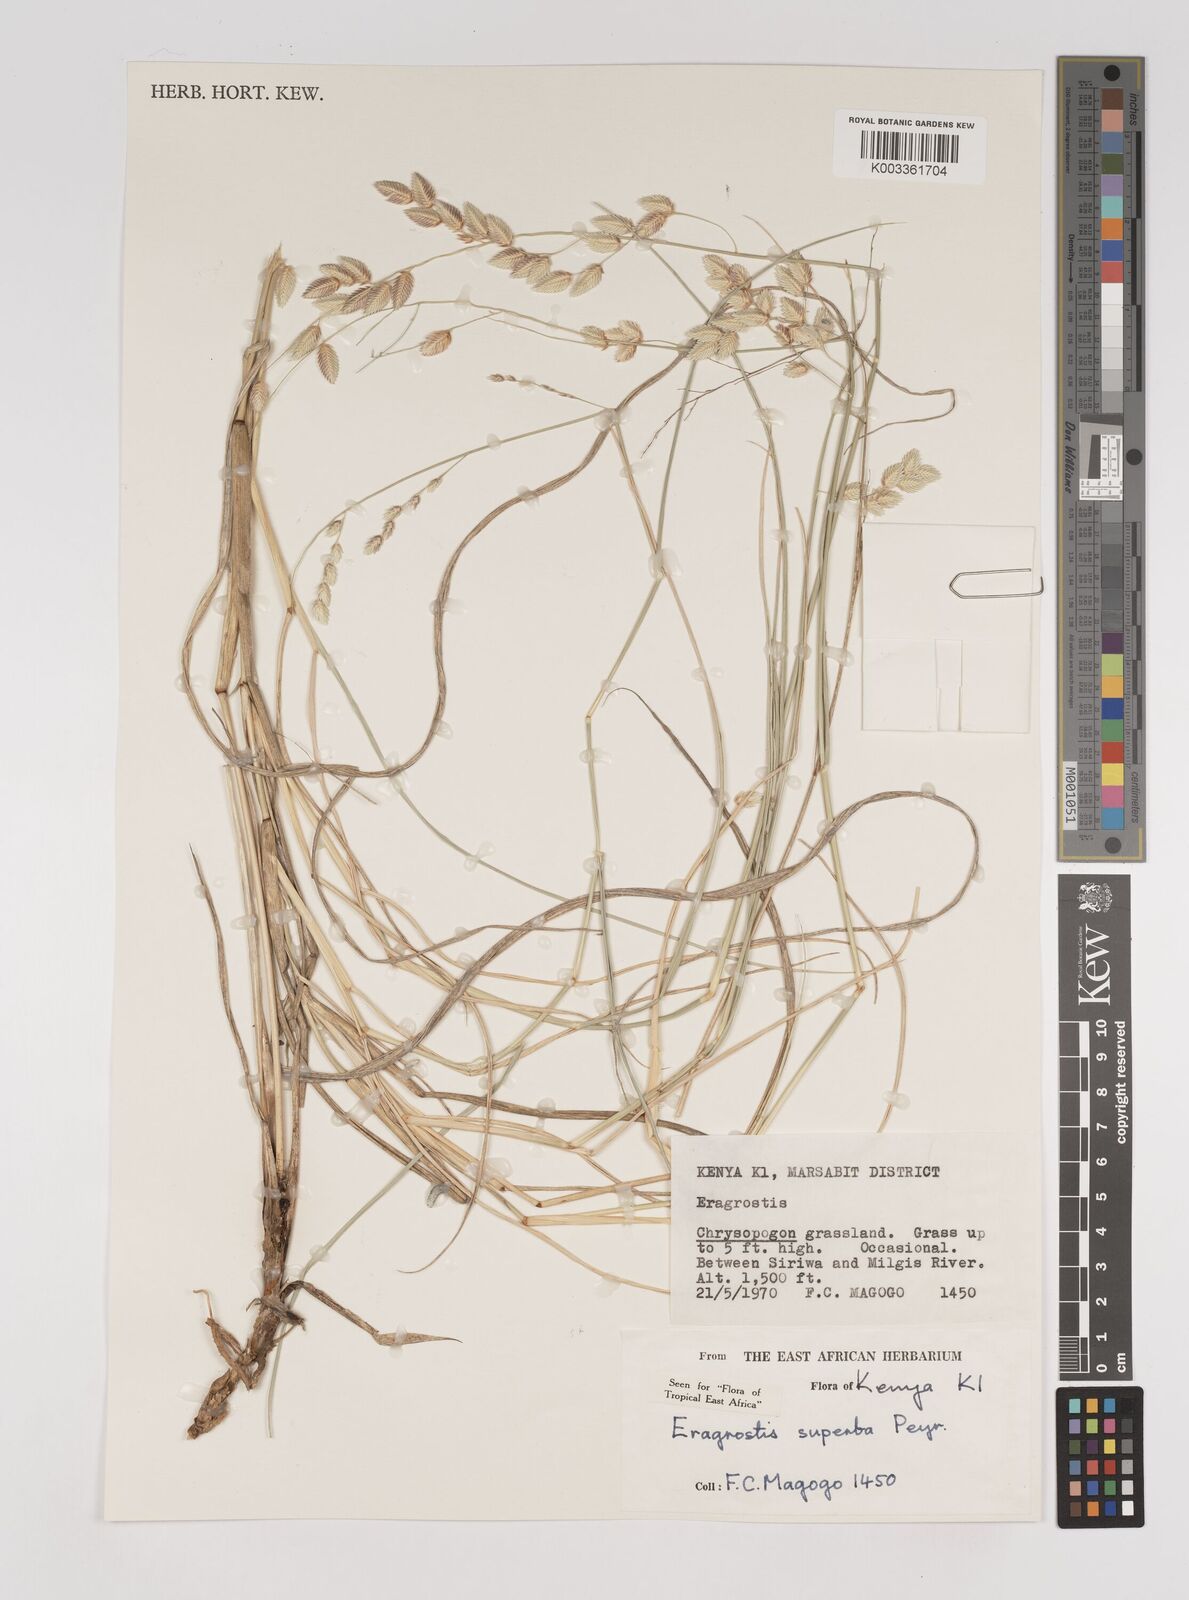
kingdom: Plantae
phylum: Tracheophyta
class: Liliopsida
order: Poales
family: Poaceae
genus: Eragrostis
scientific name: Eragrostis superba
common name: Wilman lovegrass
